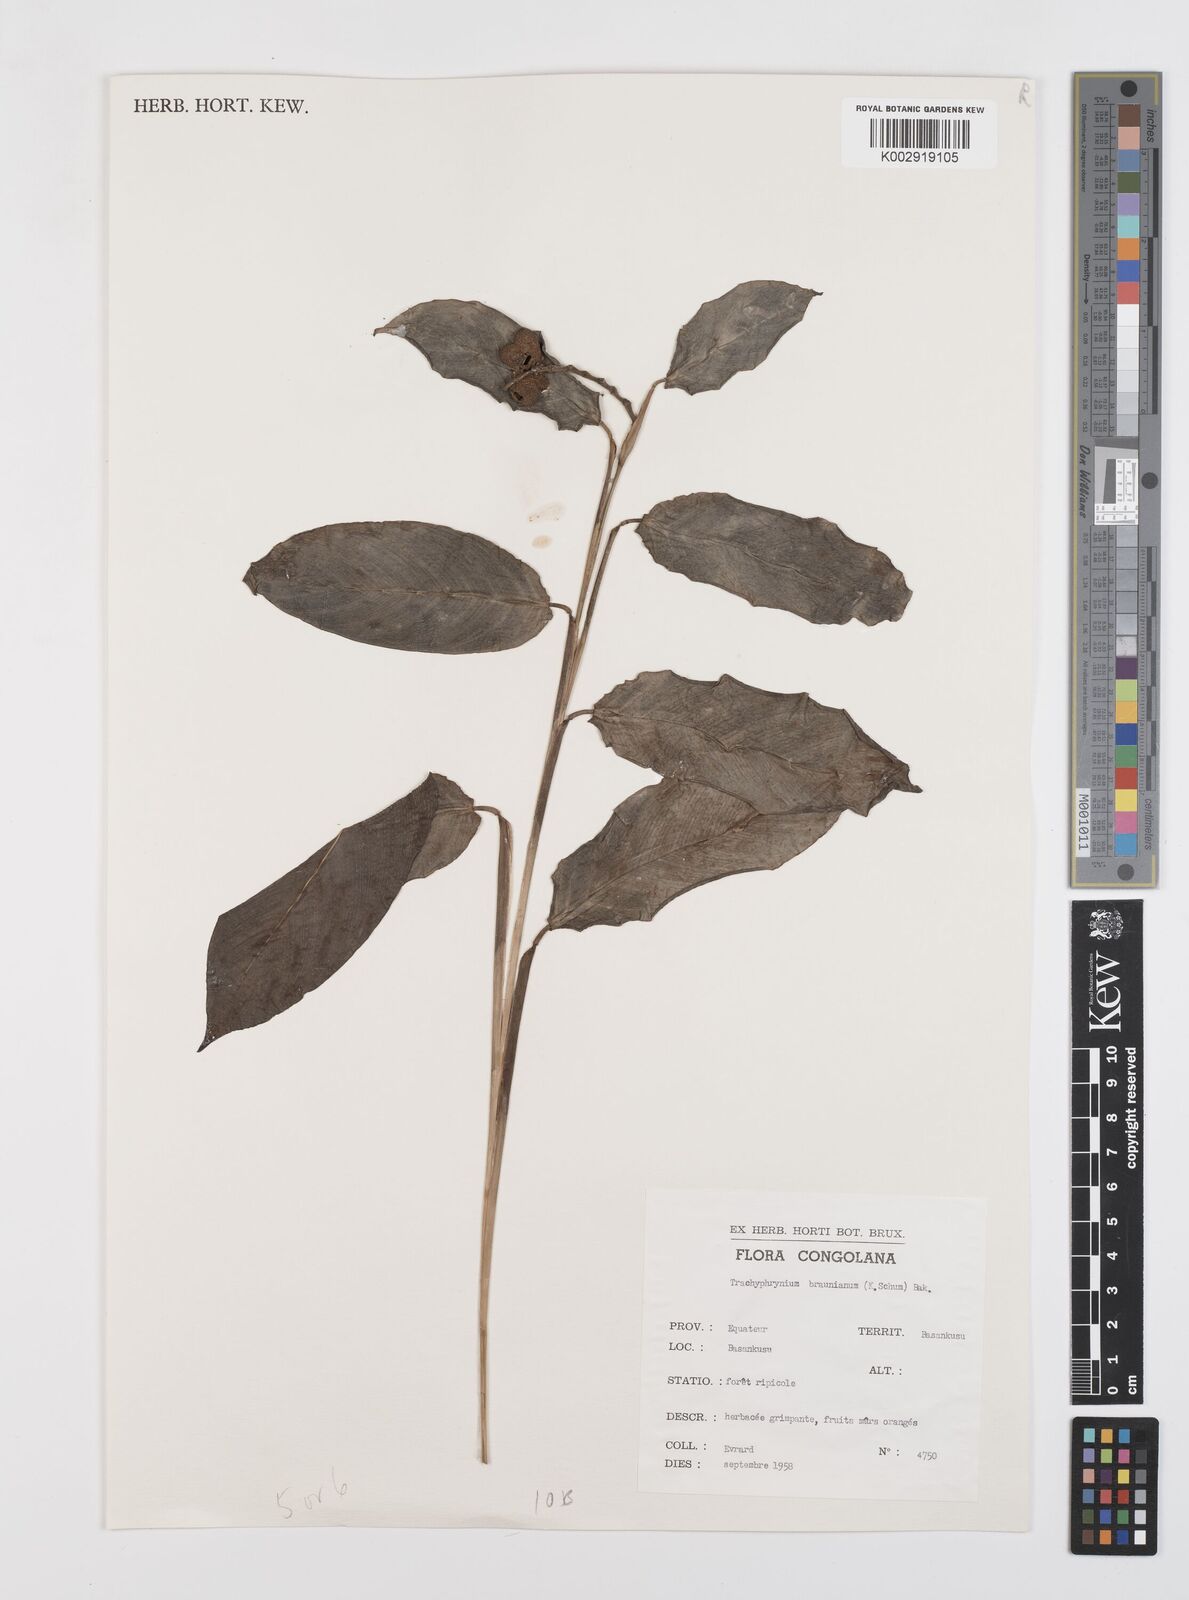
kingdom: Plantae
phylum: Tracheophyta
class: Liliopsida
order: Zingiberales
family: Marantaceae
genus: Trachyphrynium
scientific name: Trachyphrynium braunianum
